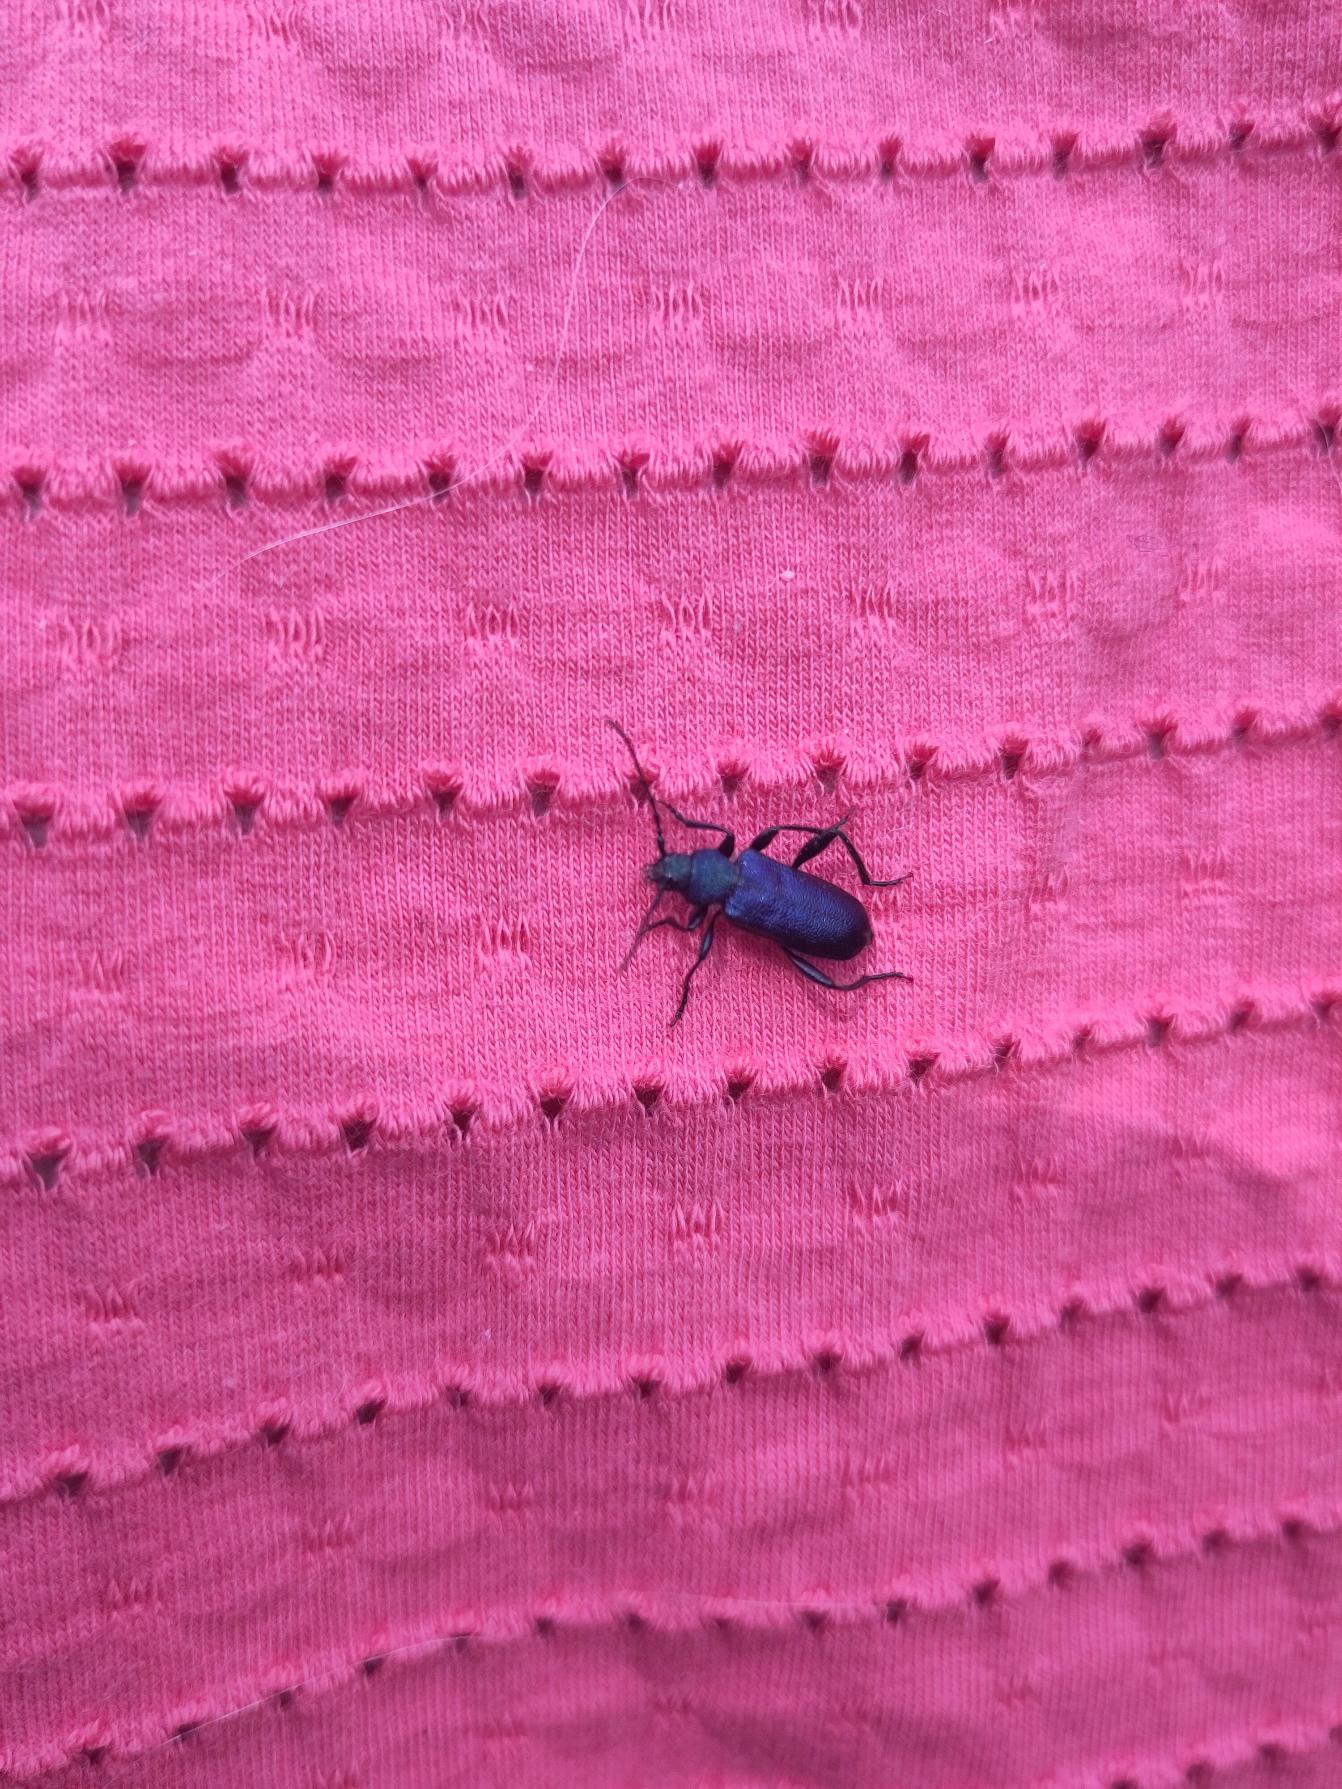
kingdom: Animalia
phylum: Arthropoda
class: Insecta
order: Coleoptera
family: Cerambycidae
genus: Agapanthia
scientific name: Agapanthia violacea
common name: Violbuk
